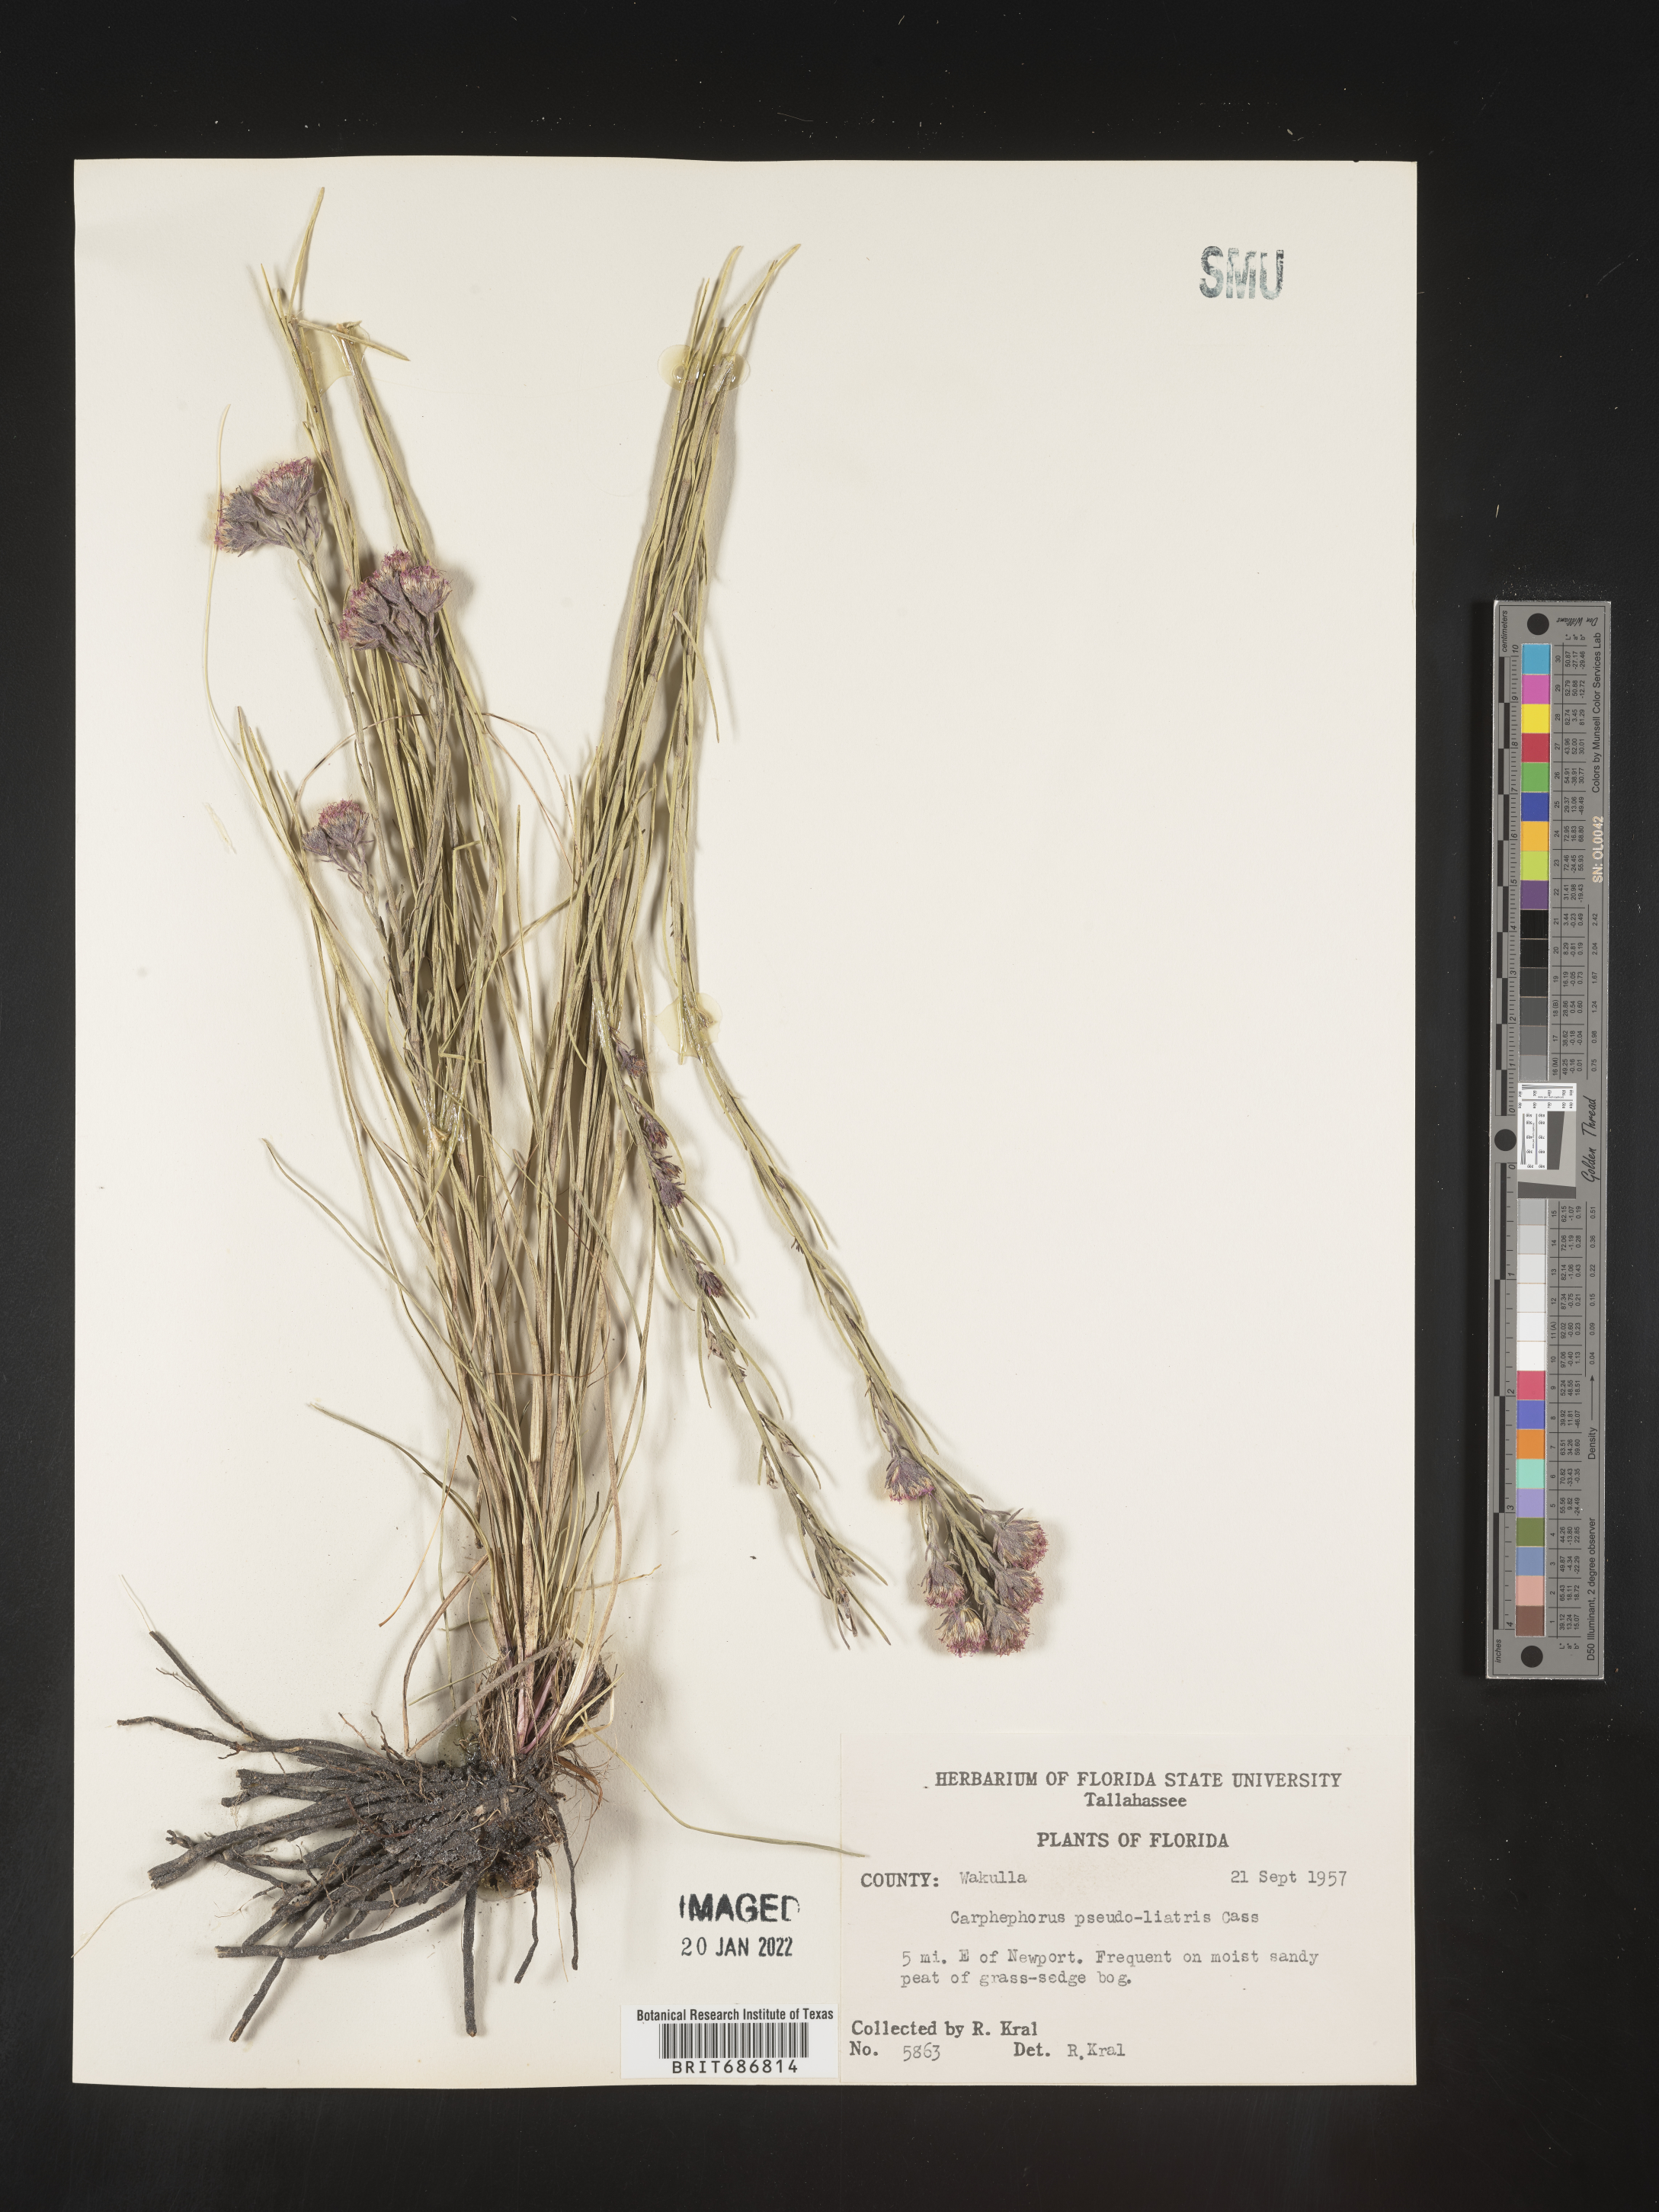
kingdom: Plantae
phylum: Tracheophyta
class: Magnoliopsida
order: Asterales
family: Asteraceae
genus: Carphephorus
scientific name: Carphephorus pseudoliatris
